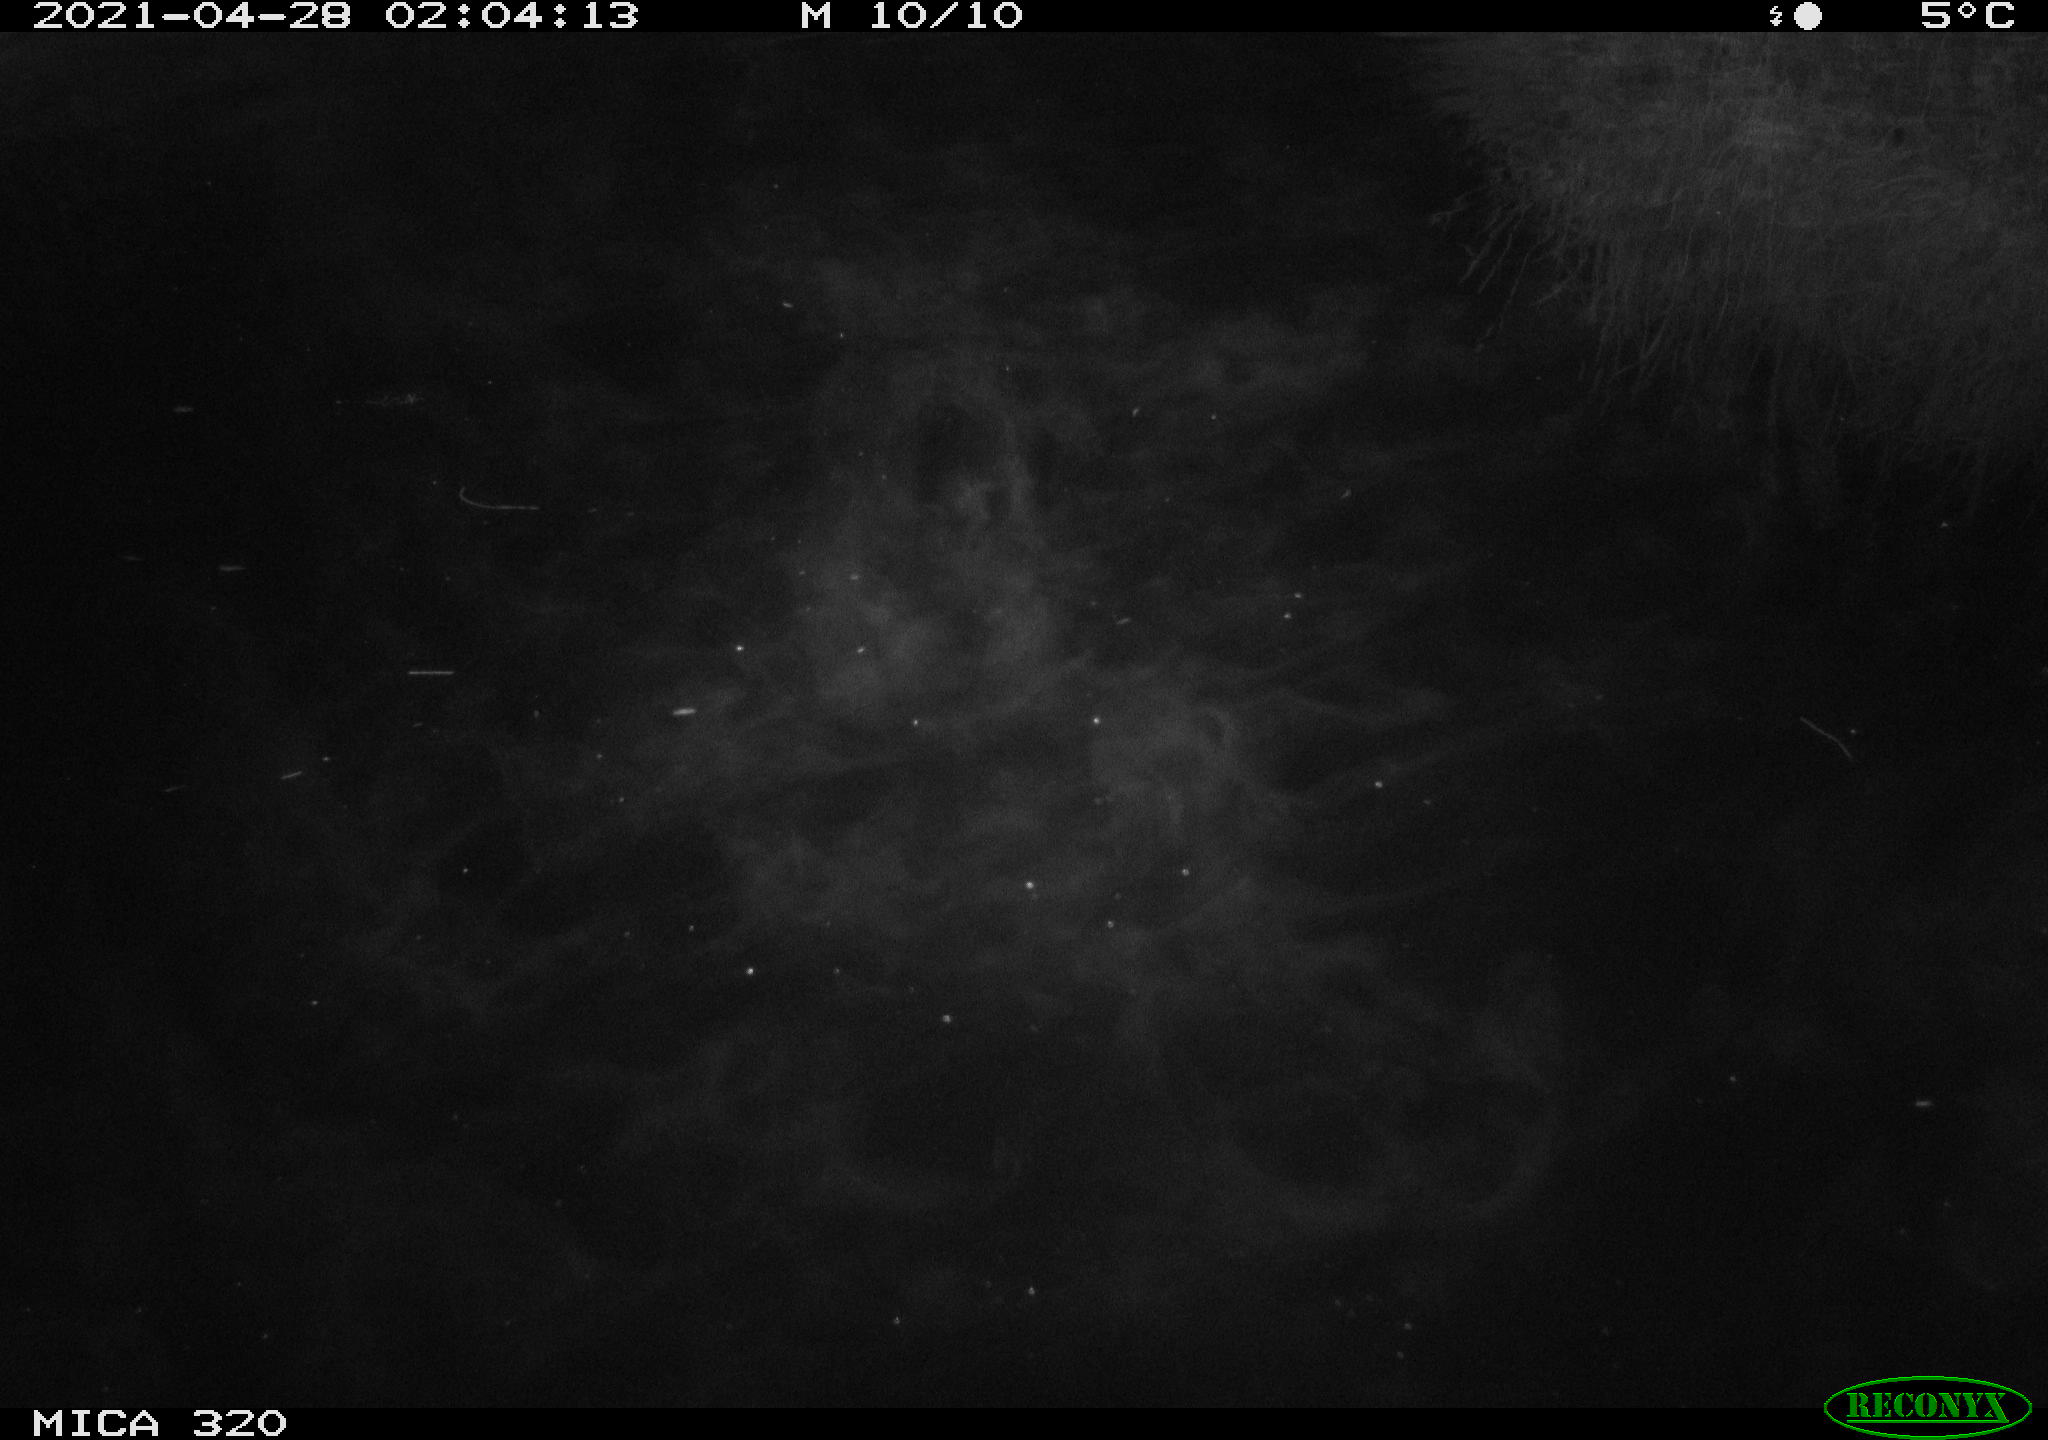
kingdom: Animalia
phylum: Chordata
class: Aves
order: Anseriformes
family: Anatidae
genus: Anas
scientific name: Anas platyrhynchos
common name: Mallard
